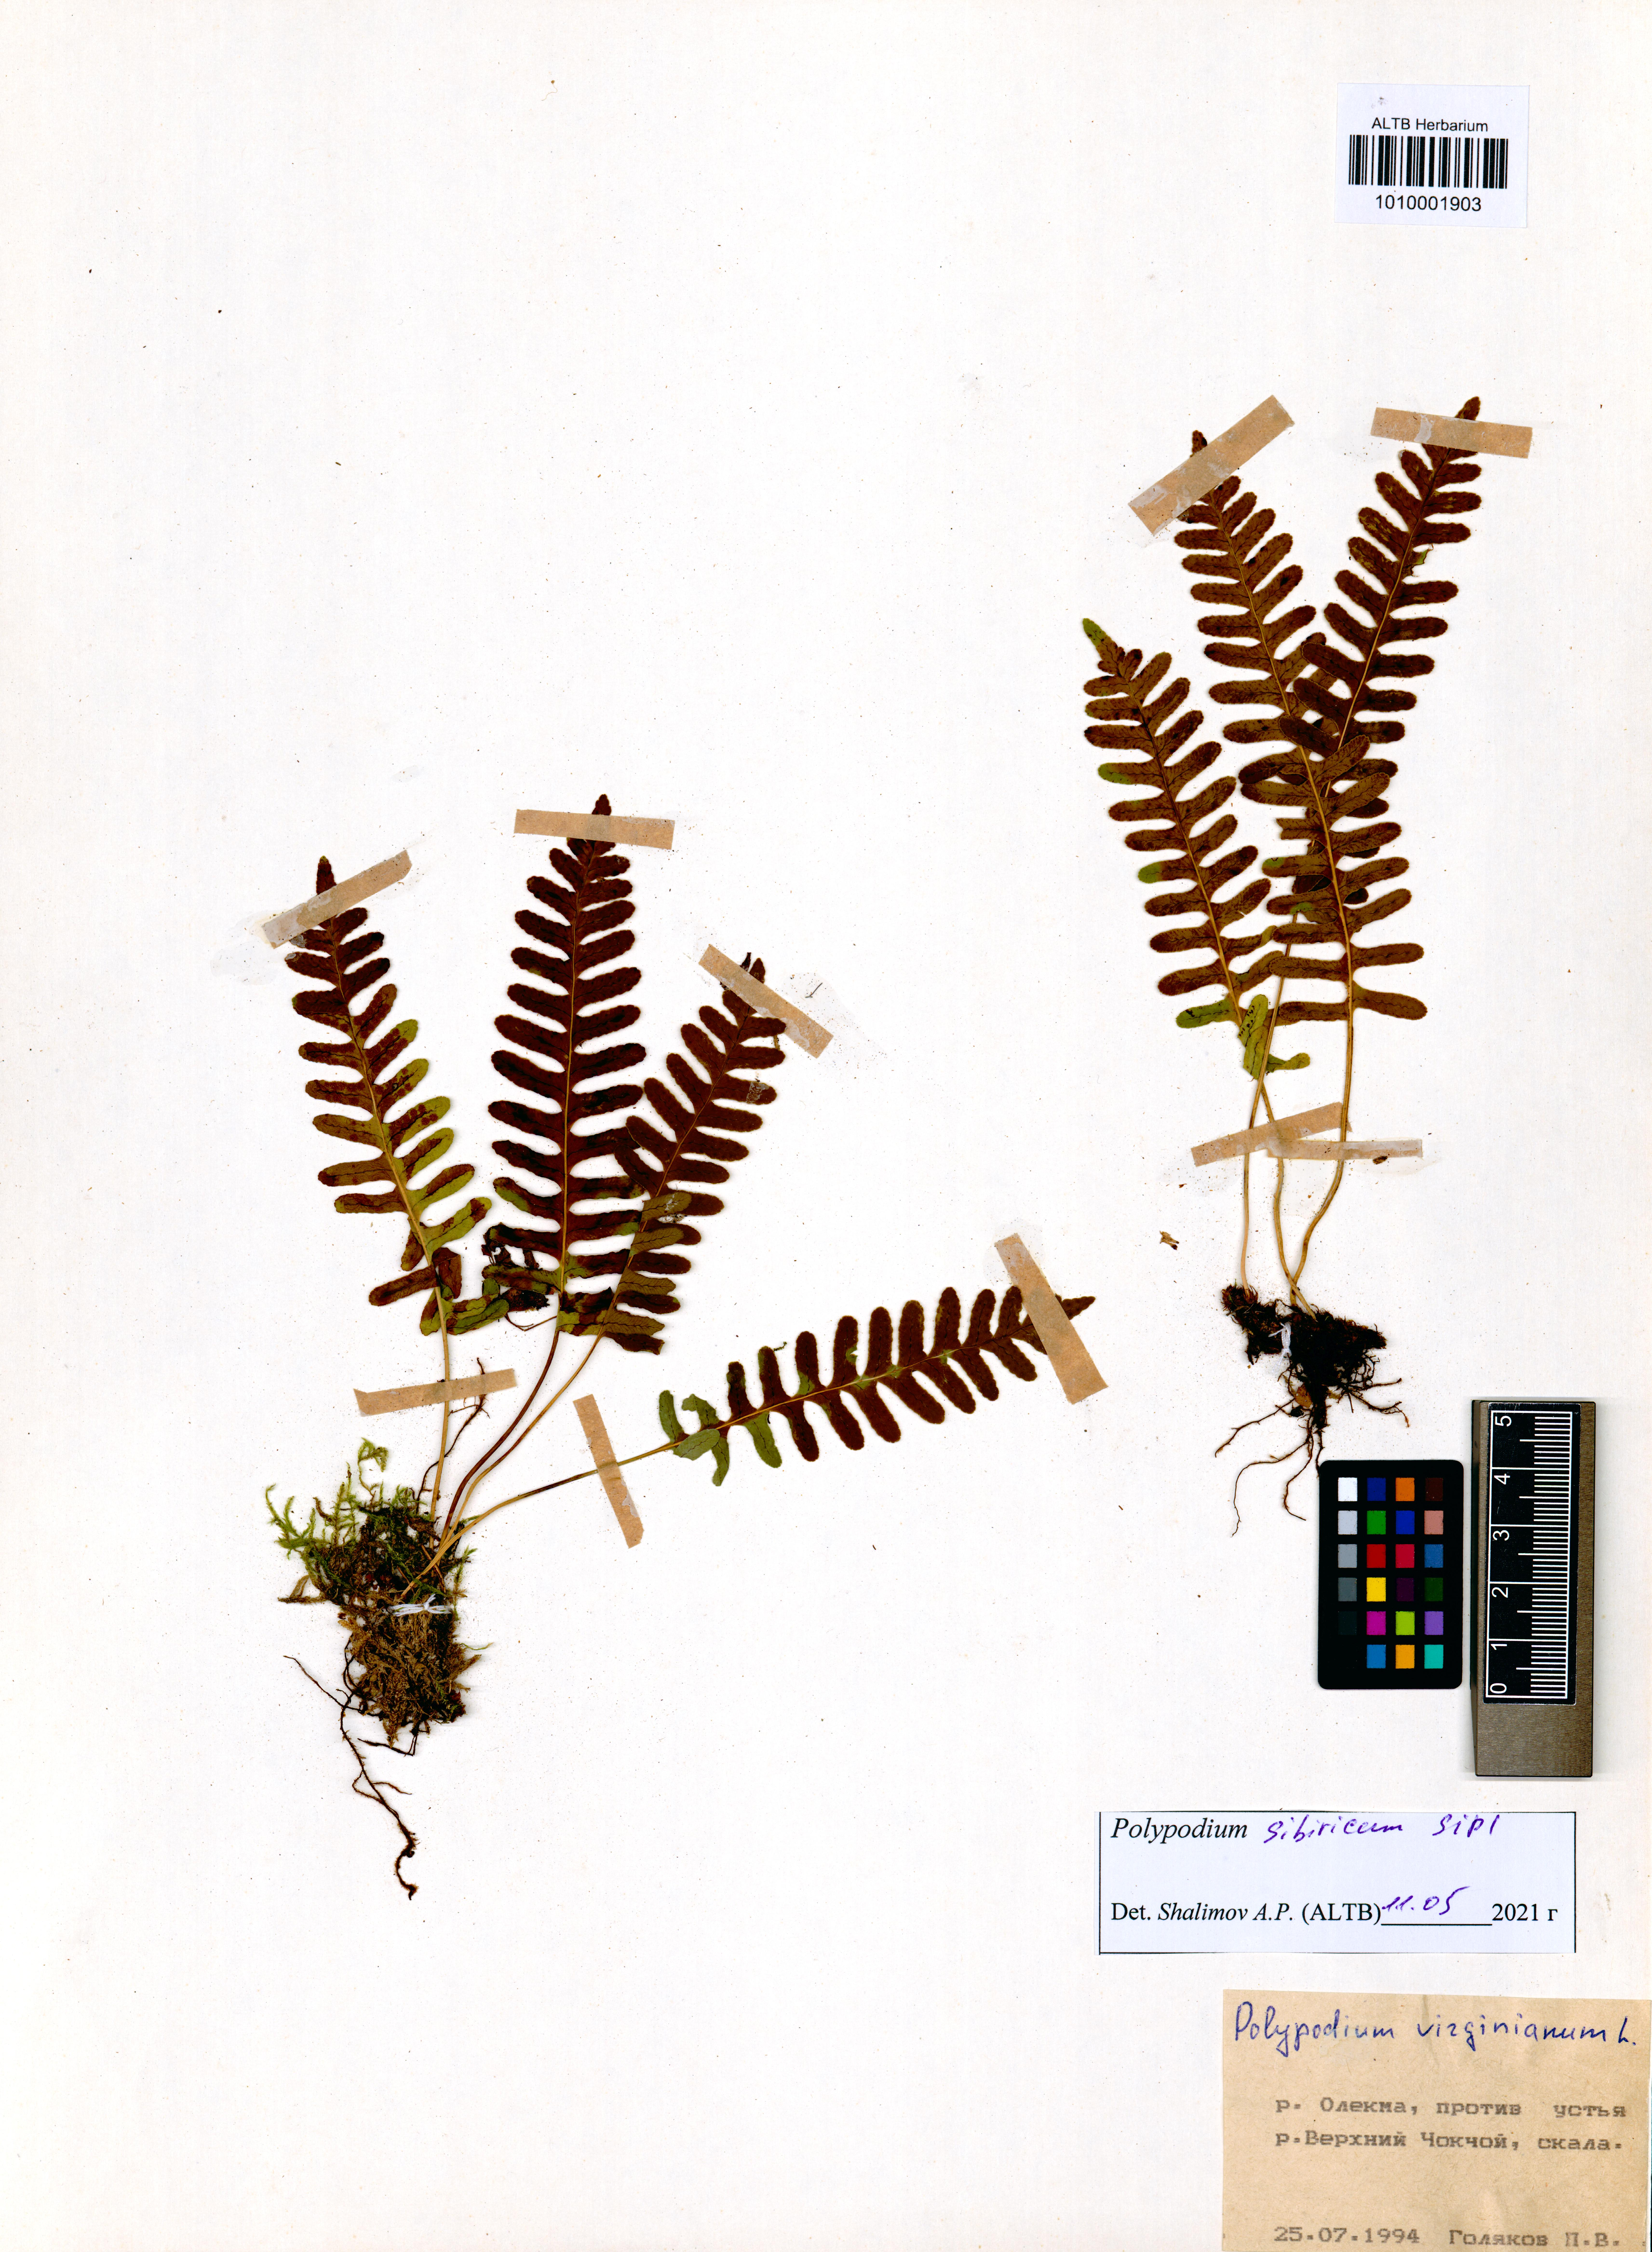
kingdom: Plantae
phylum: Tracheophyta
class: Polypodiopsida
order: Polypodiales
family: Polypodiaceae
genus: Polypodium
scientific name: Polypodium sibiricum
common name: Siberian polypody
